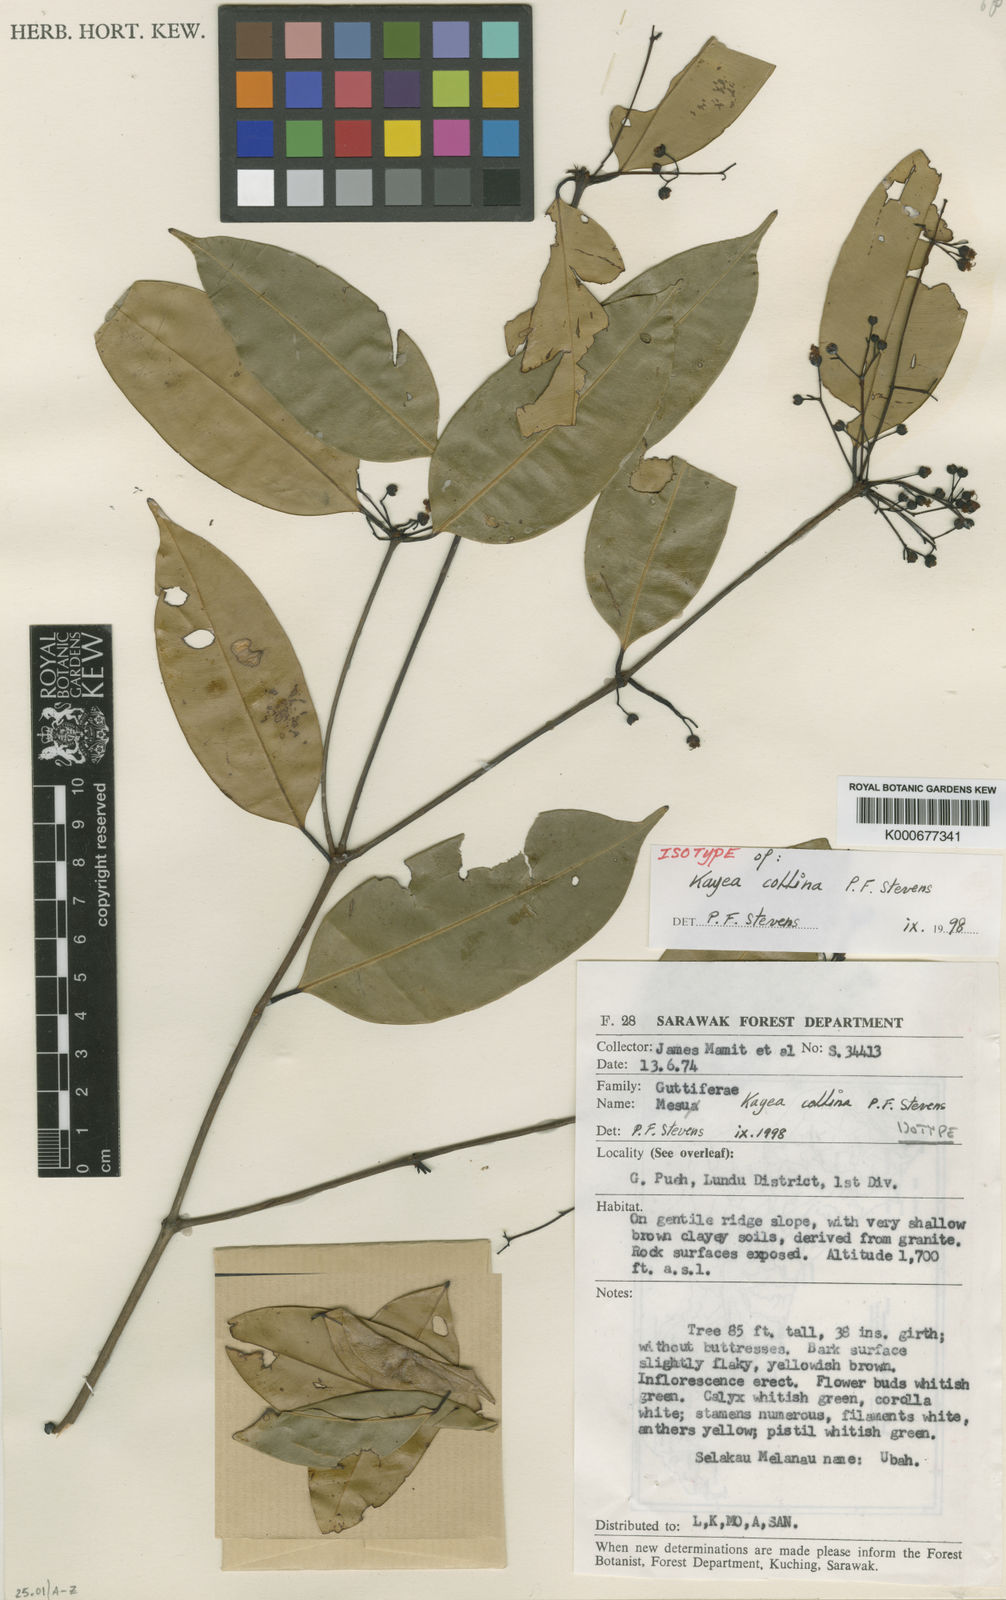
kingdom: Plantae
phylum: Tracheophyta
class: Magnoliopsida
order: Malpighiales
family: Calophyllaceae
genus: Kayea
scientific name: Kayea
